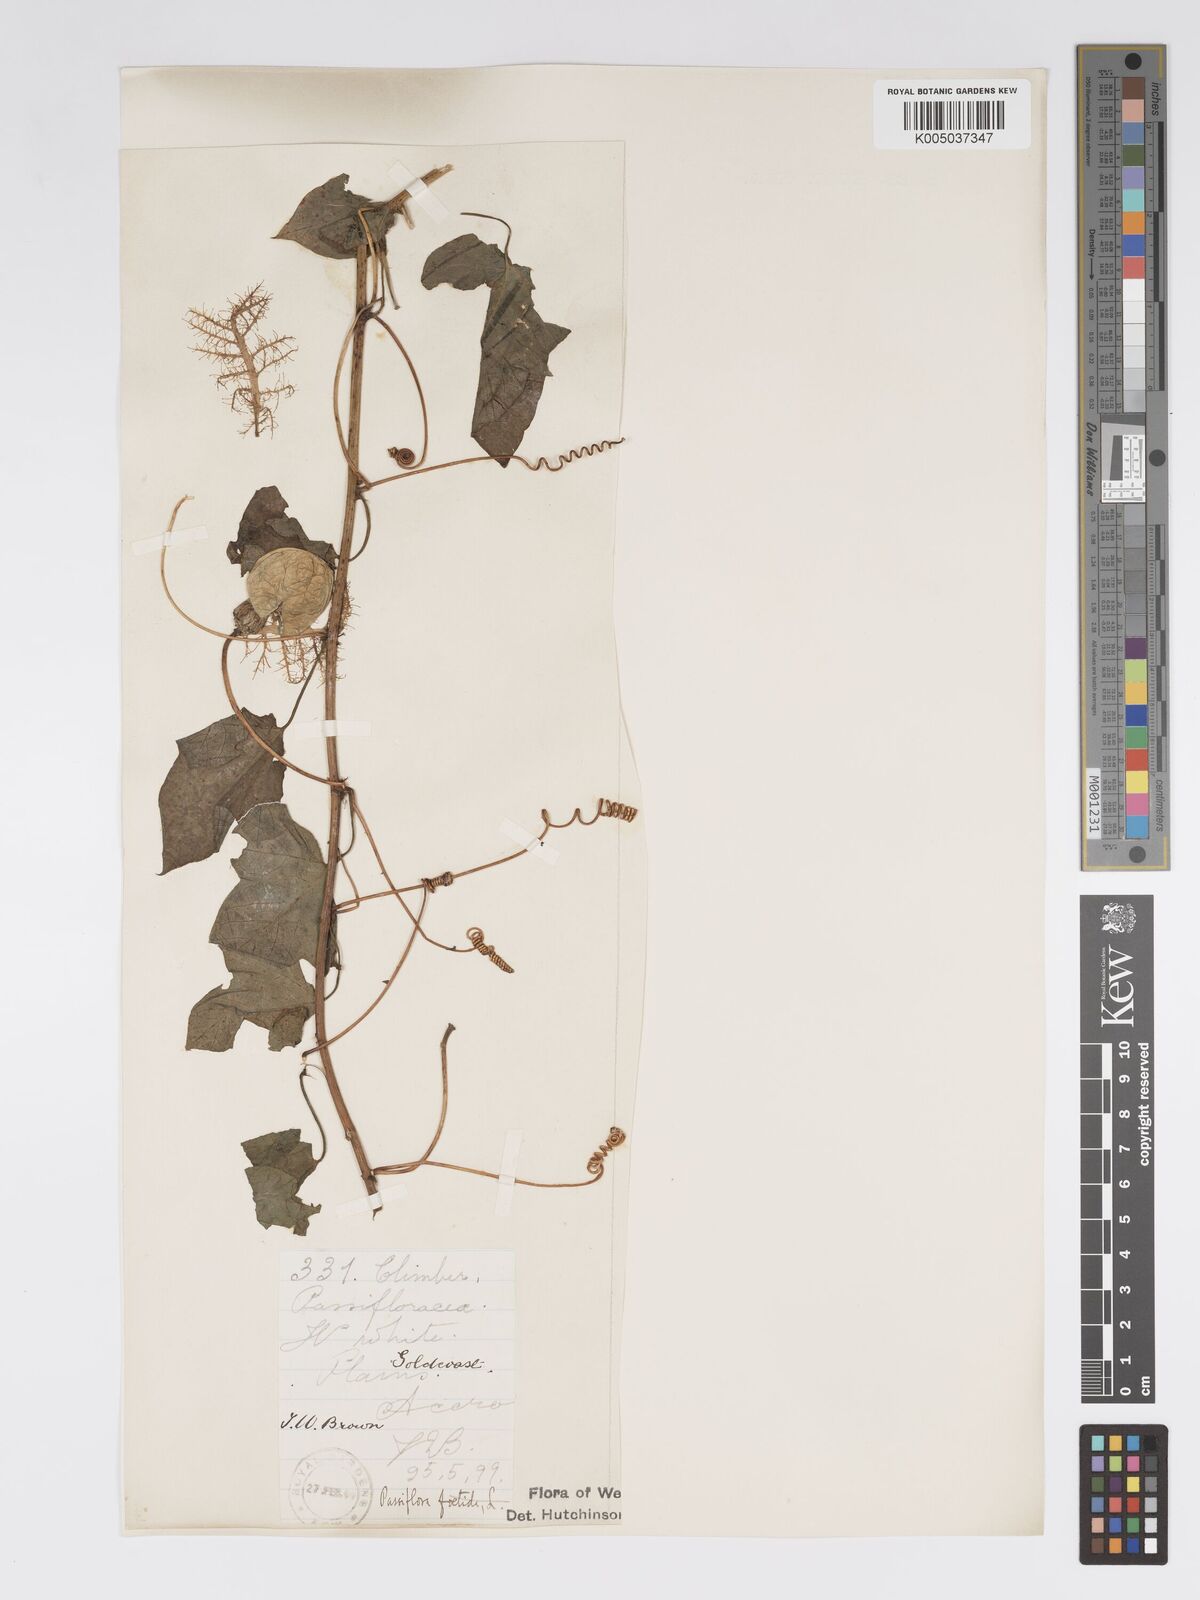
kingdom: Plantae
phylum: Tracheophyta
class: Magnoliopsida
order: Malpighiales
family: Passifloraceae
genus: Passiflora
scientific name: Passiflora foetida
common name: Fetid passionflower
